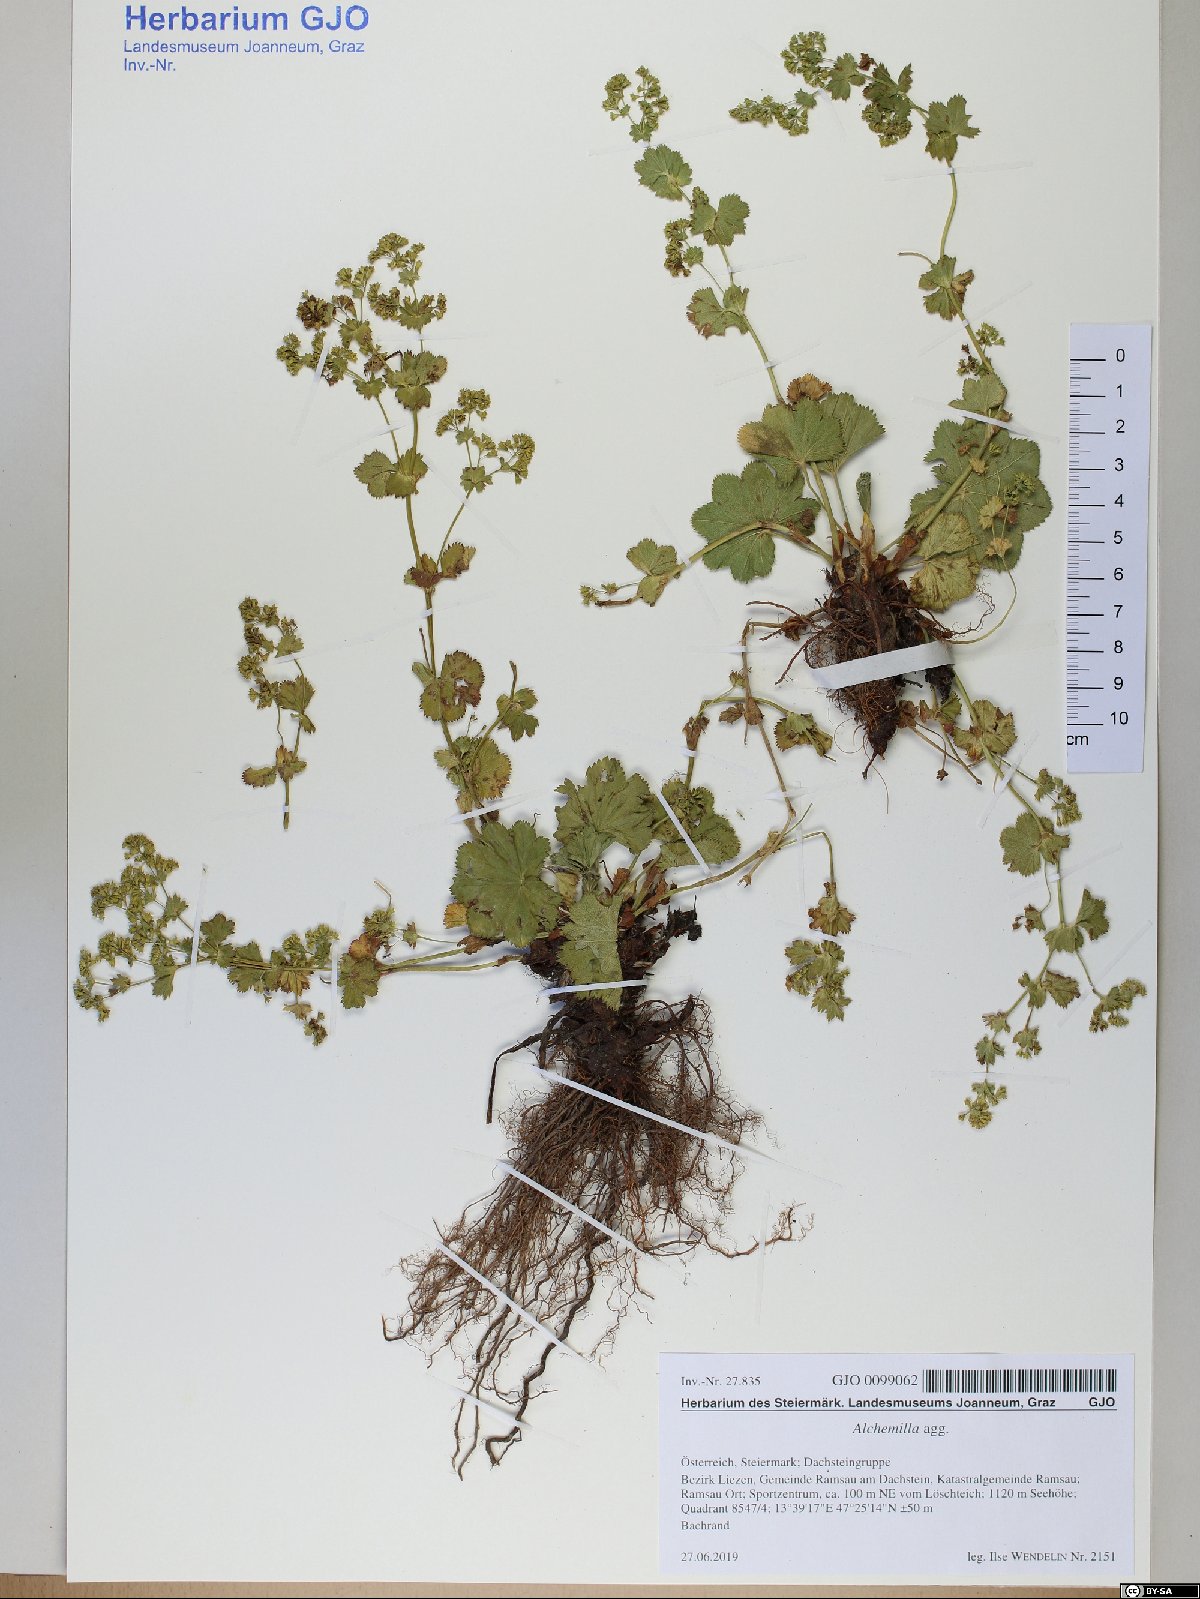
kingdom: Plantae
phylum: Tracheophyta
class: Magnoliopsida
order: Rosales
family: Rosaceae
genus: Alchemilla
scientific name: Alchemilla
